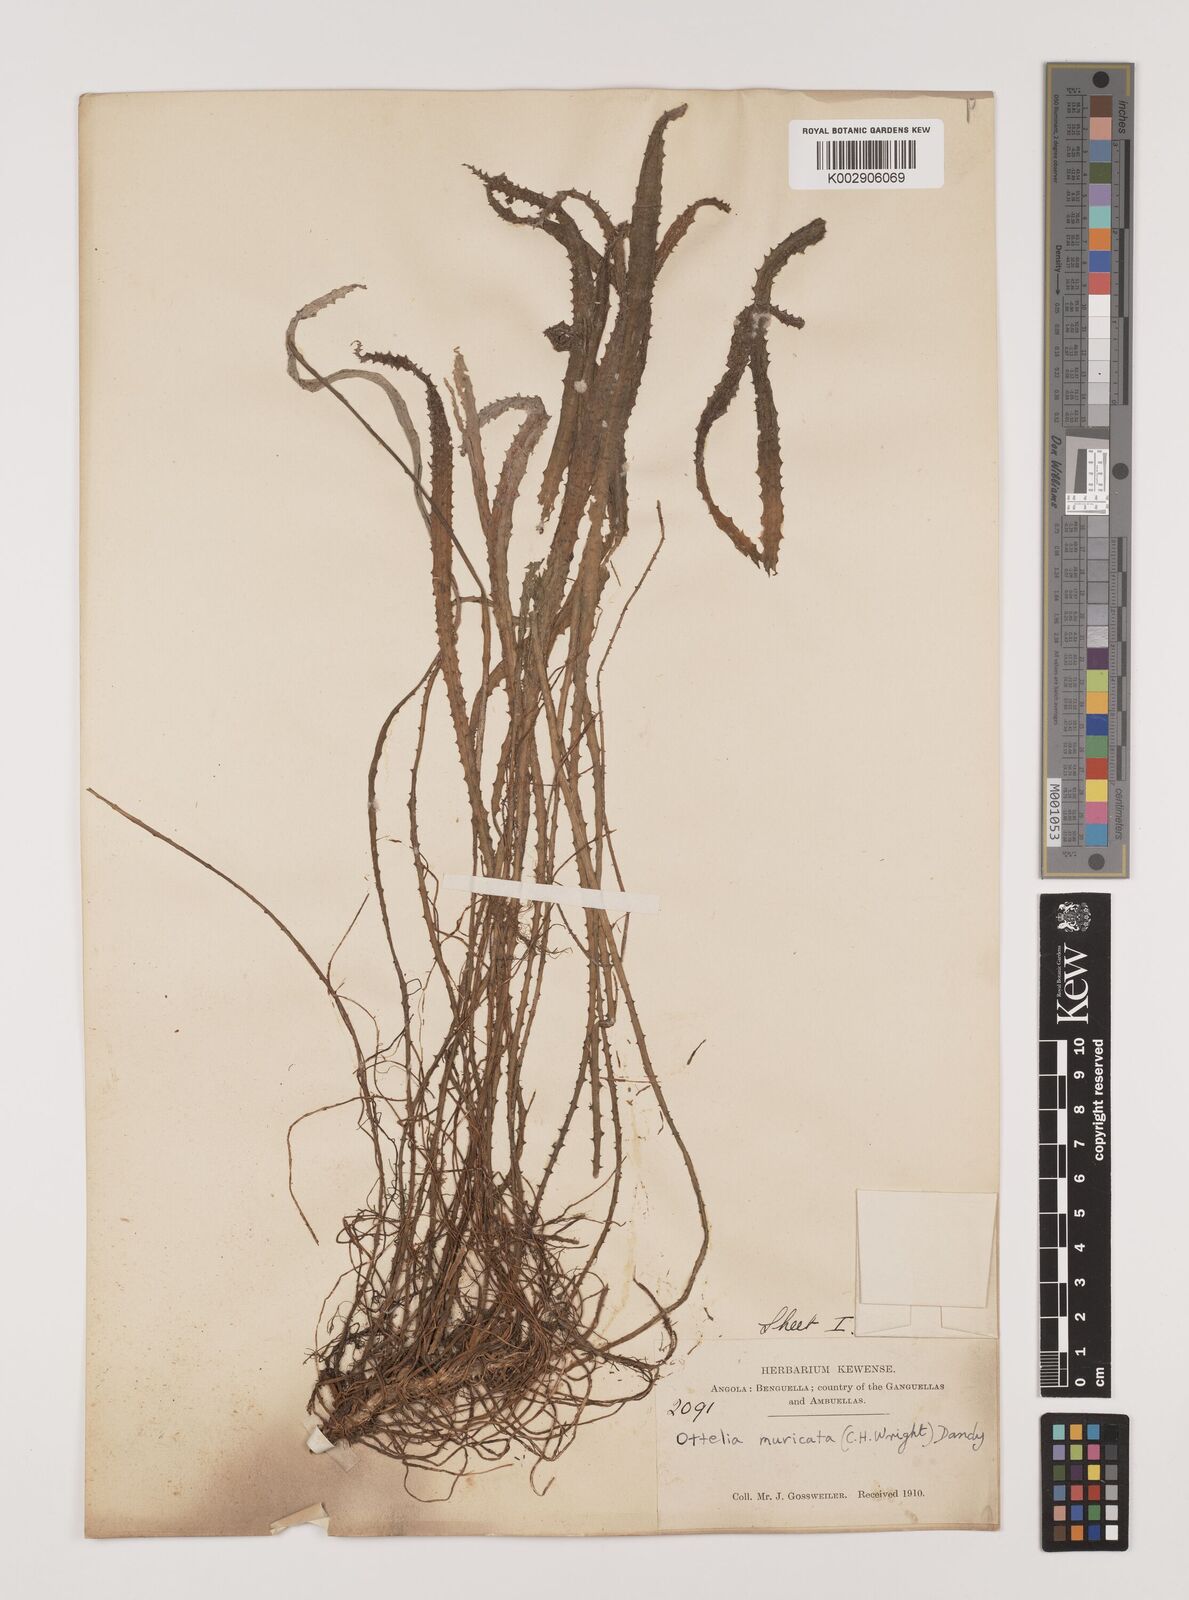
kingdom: Plantae
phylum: Tracheophyta
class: Liliopsida
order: Alismatales
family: Hydrocharitaceae
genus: Ottelia
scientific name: Ottelia muricata
